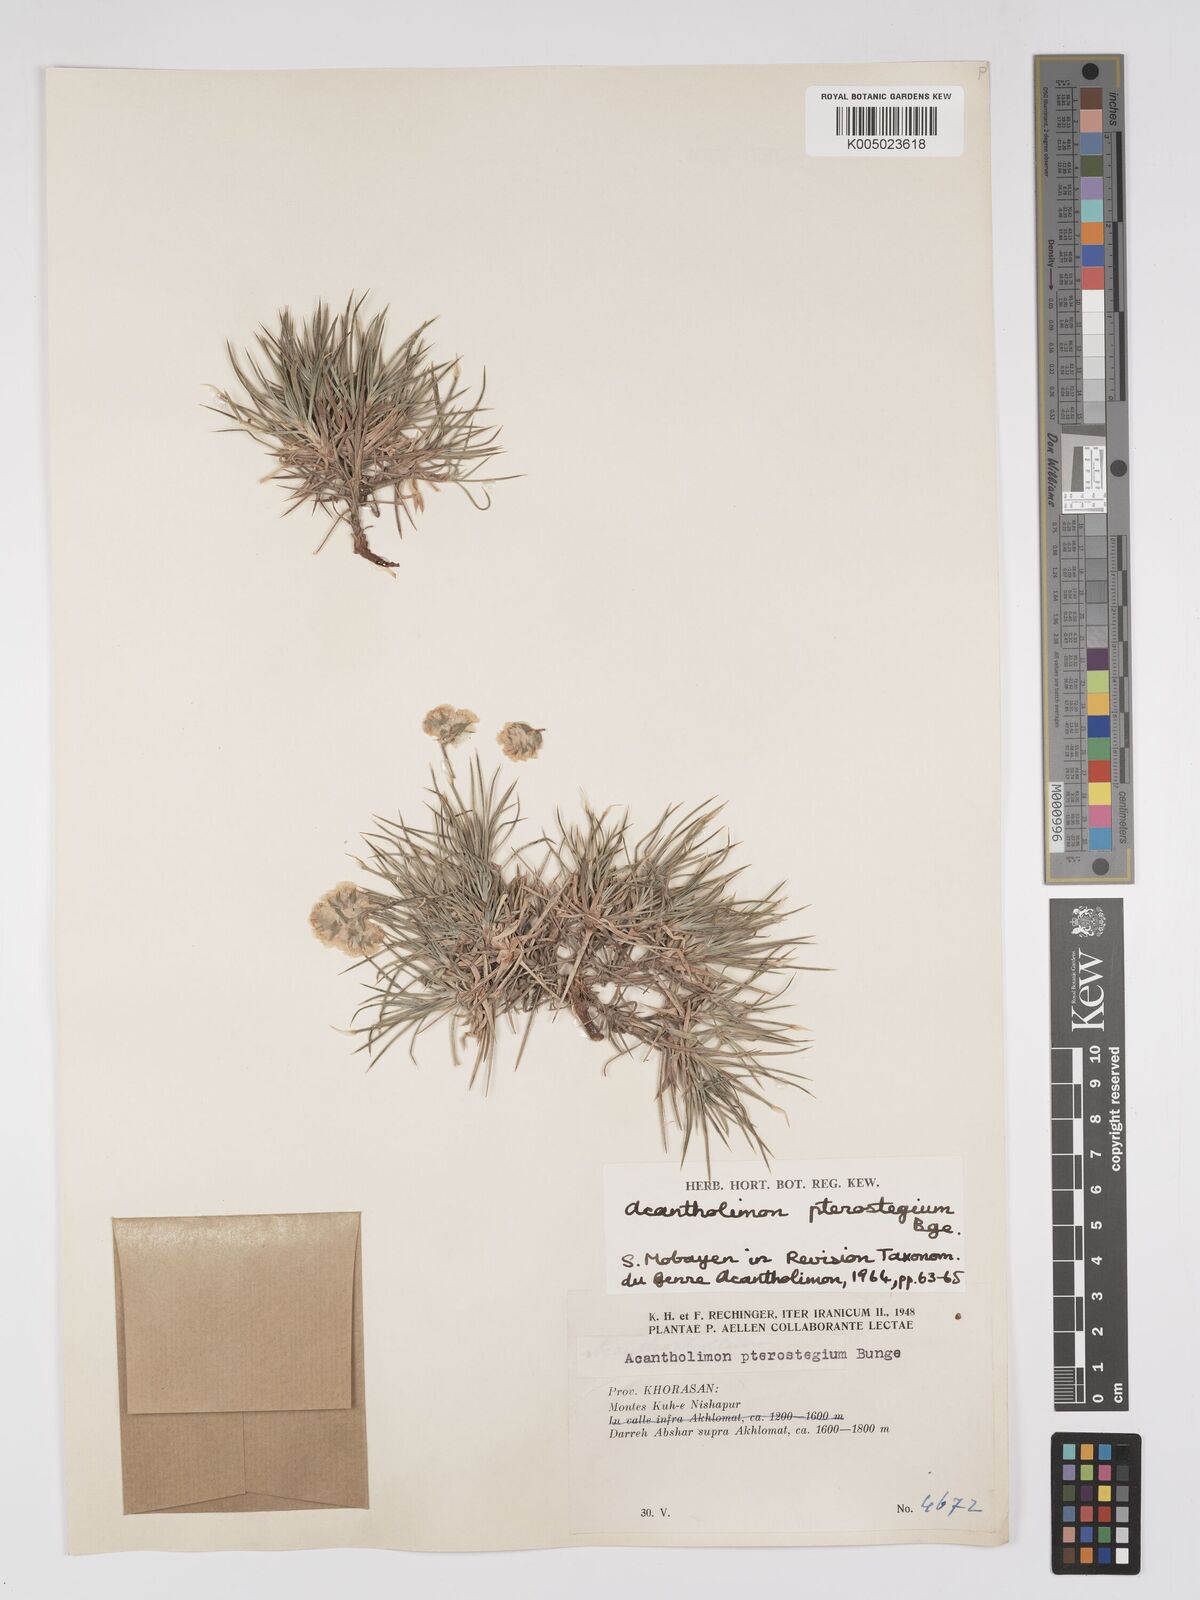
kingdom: Plantae
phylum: Tracheophyta
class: Magnoliopsida
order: Caryophyllales
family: Plumbaginaceae
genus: Acantholimon
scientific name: Acantholimon pterostegium
